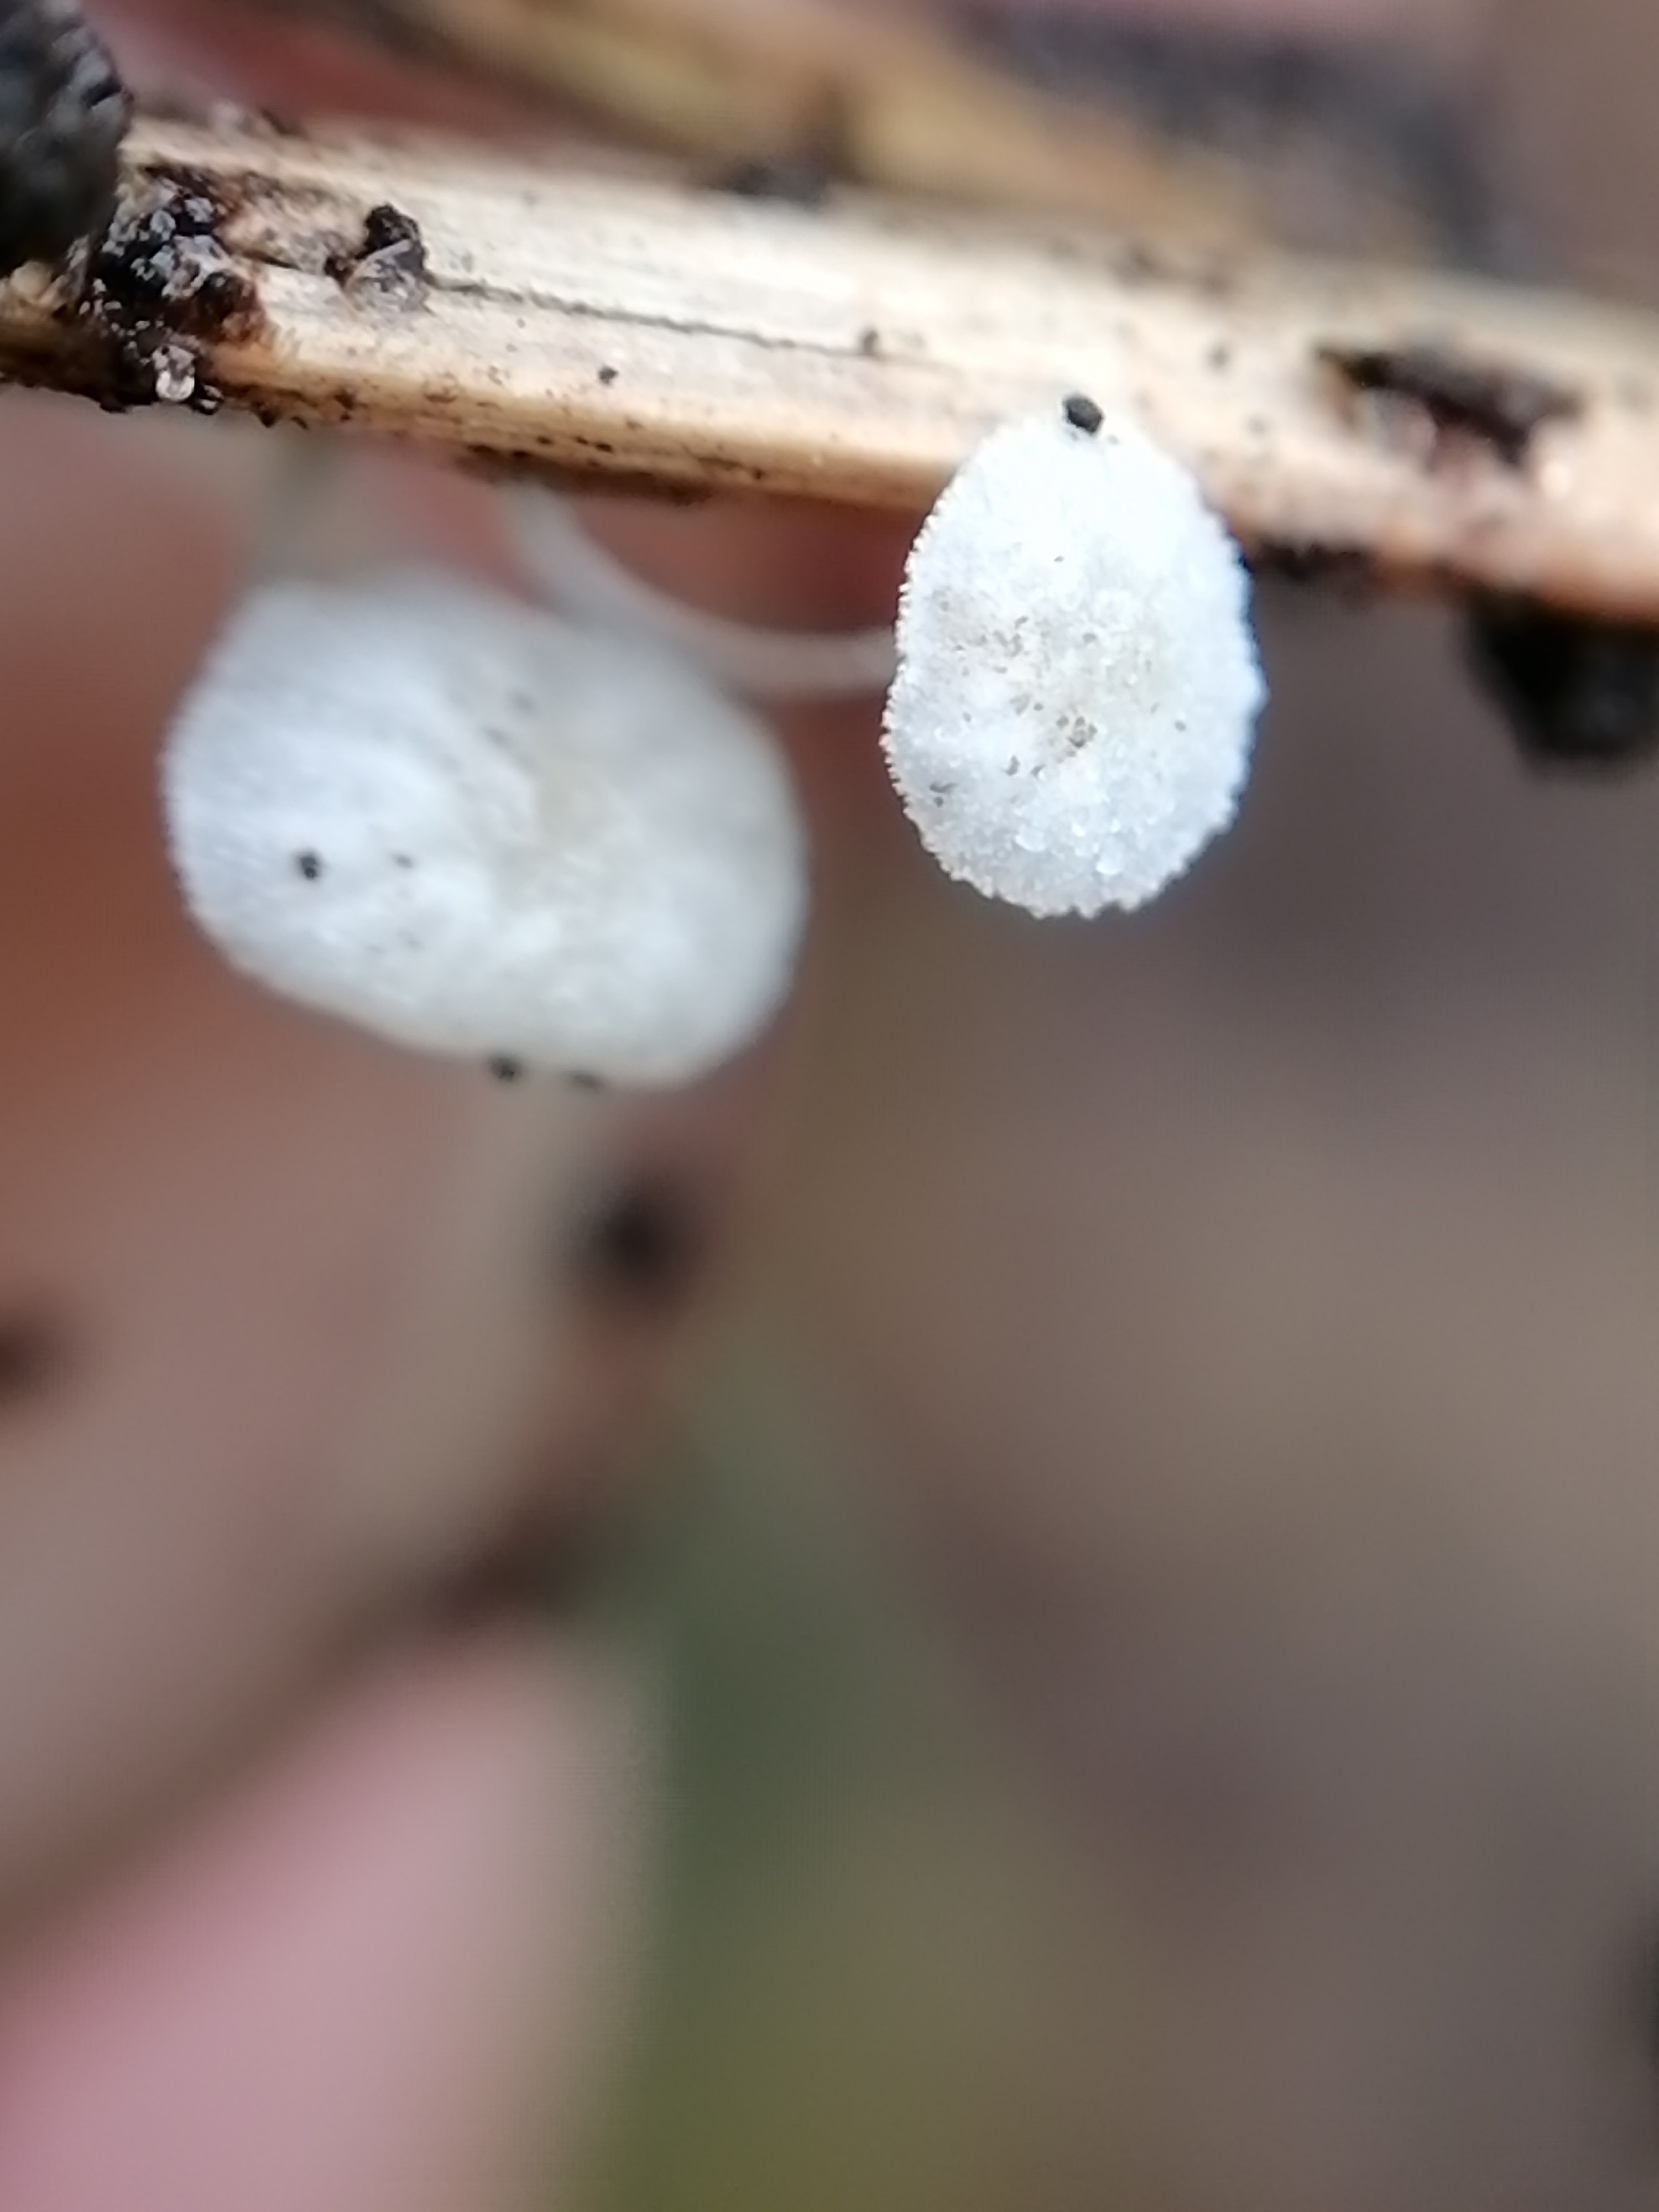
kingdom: Fungi
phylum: Basidiomycota
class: Agaricomycetes
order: Agaricales
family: Mycenaceae
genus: Resinomycena
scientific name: Resinomycena saccharifera
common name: sukkerhat
